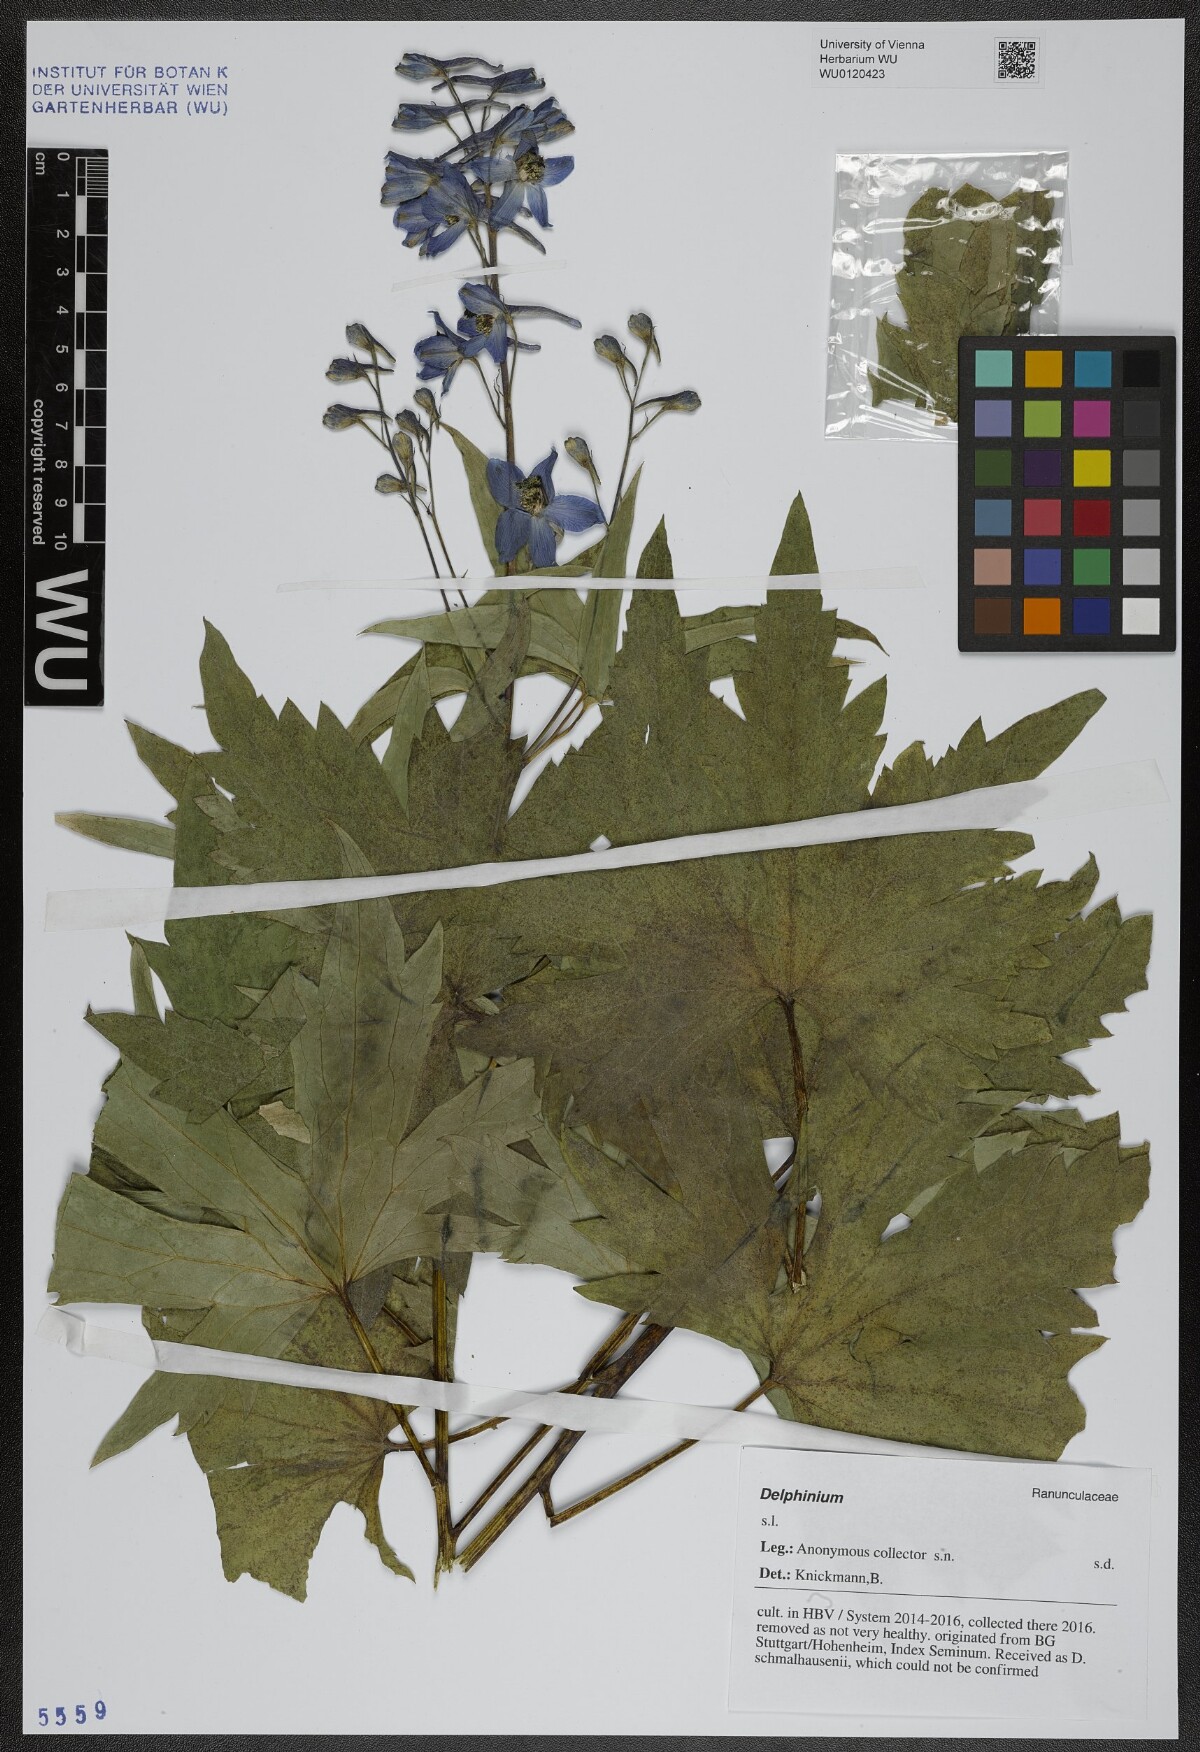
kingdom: Plantae
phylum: Tracheophyta
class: Magnoliopsida
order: Ranunculales
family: Ranunculaceae
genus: Delphinium
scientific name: Delphinium
